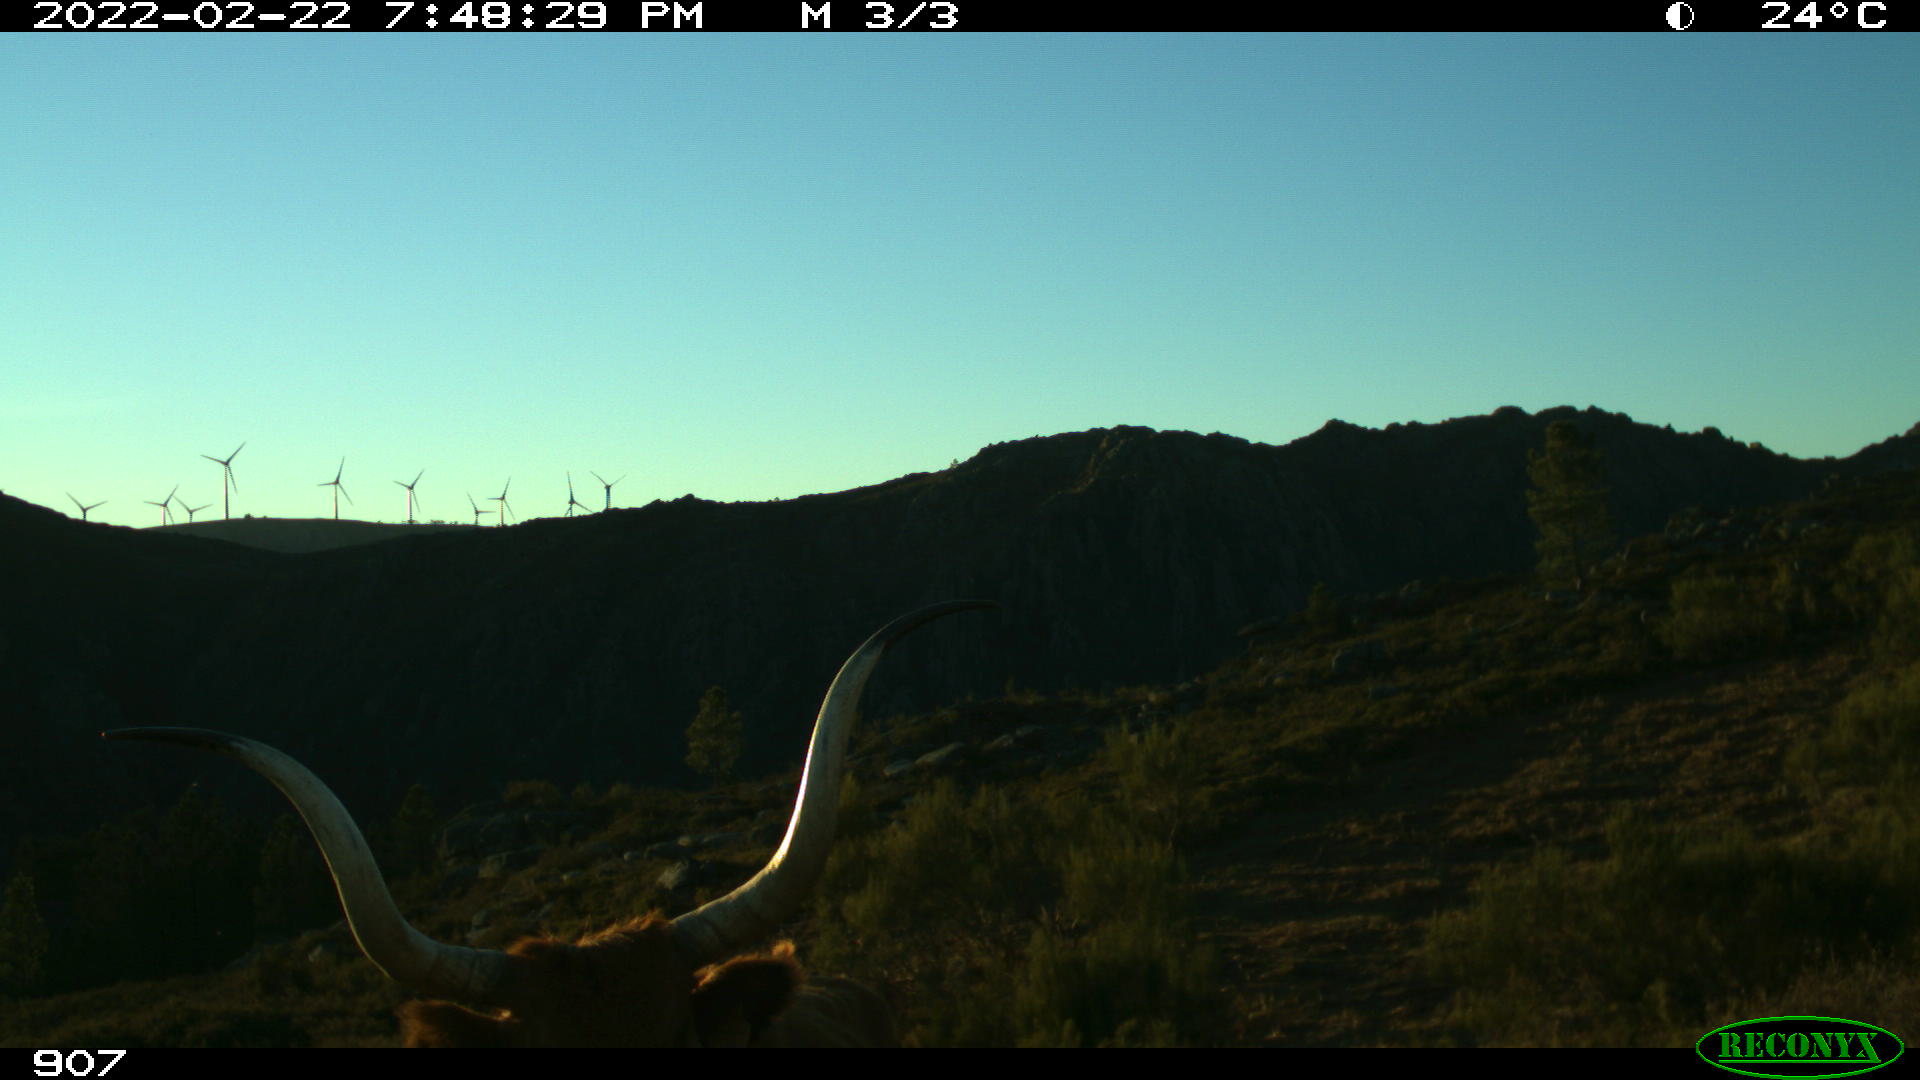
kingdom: Animalia
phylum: Chordata
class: Mammalia
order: Artiodactyla
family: Bovidae
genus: Bos
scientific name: Bos taurus
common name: Domesticated cattle
